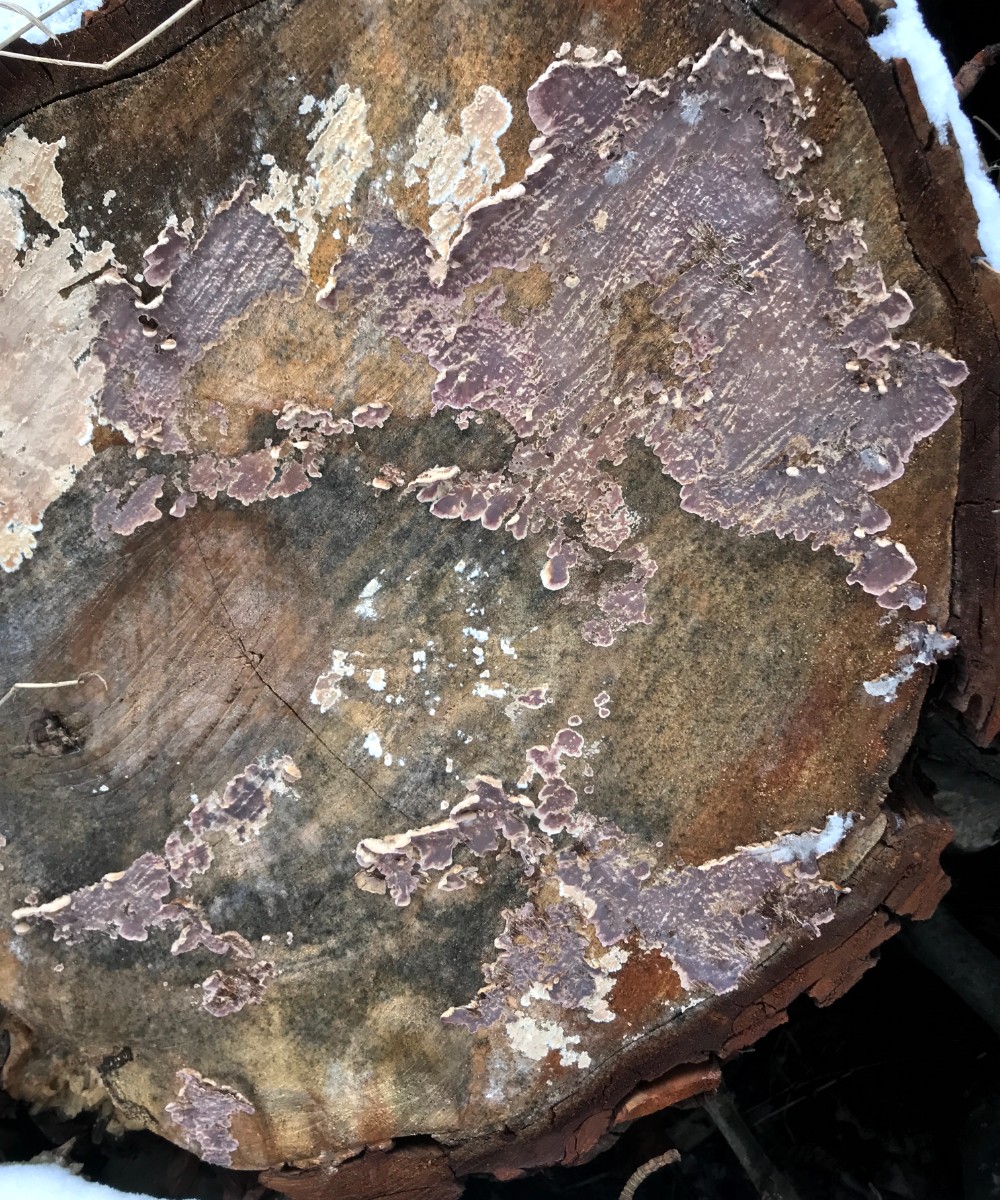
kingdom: Fungi
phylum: Basidiomycota
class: Agaricomycetes
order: Agaricales
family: Cyphellaceae
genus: Chondrostereum
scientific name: Chondrostereum purpureum
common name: purpurlædersvamp
